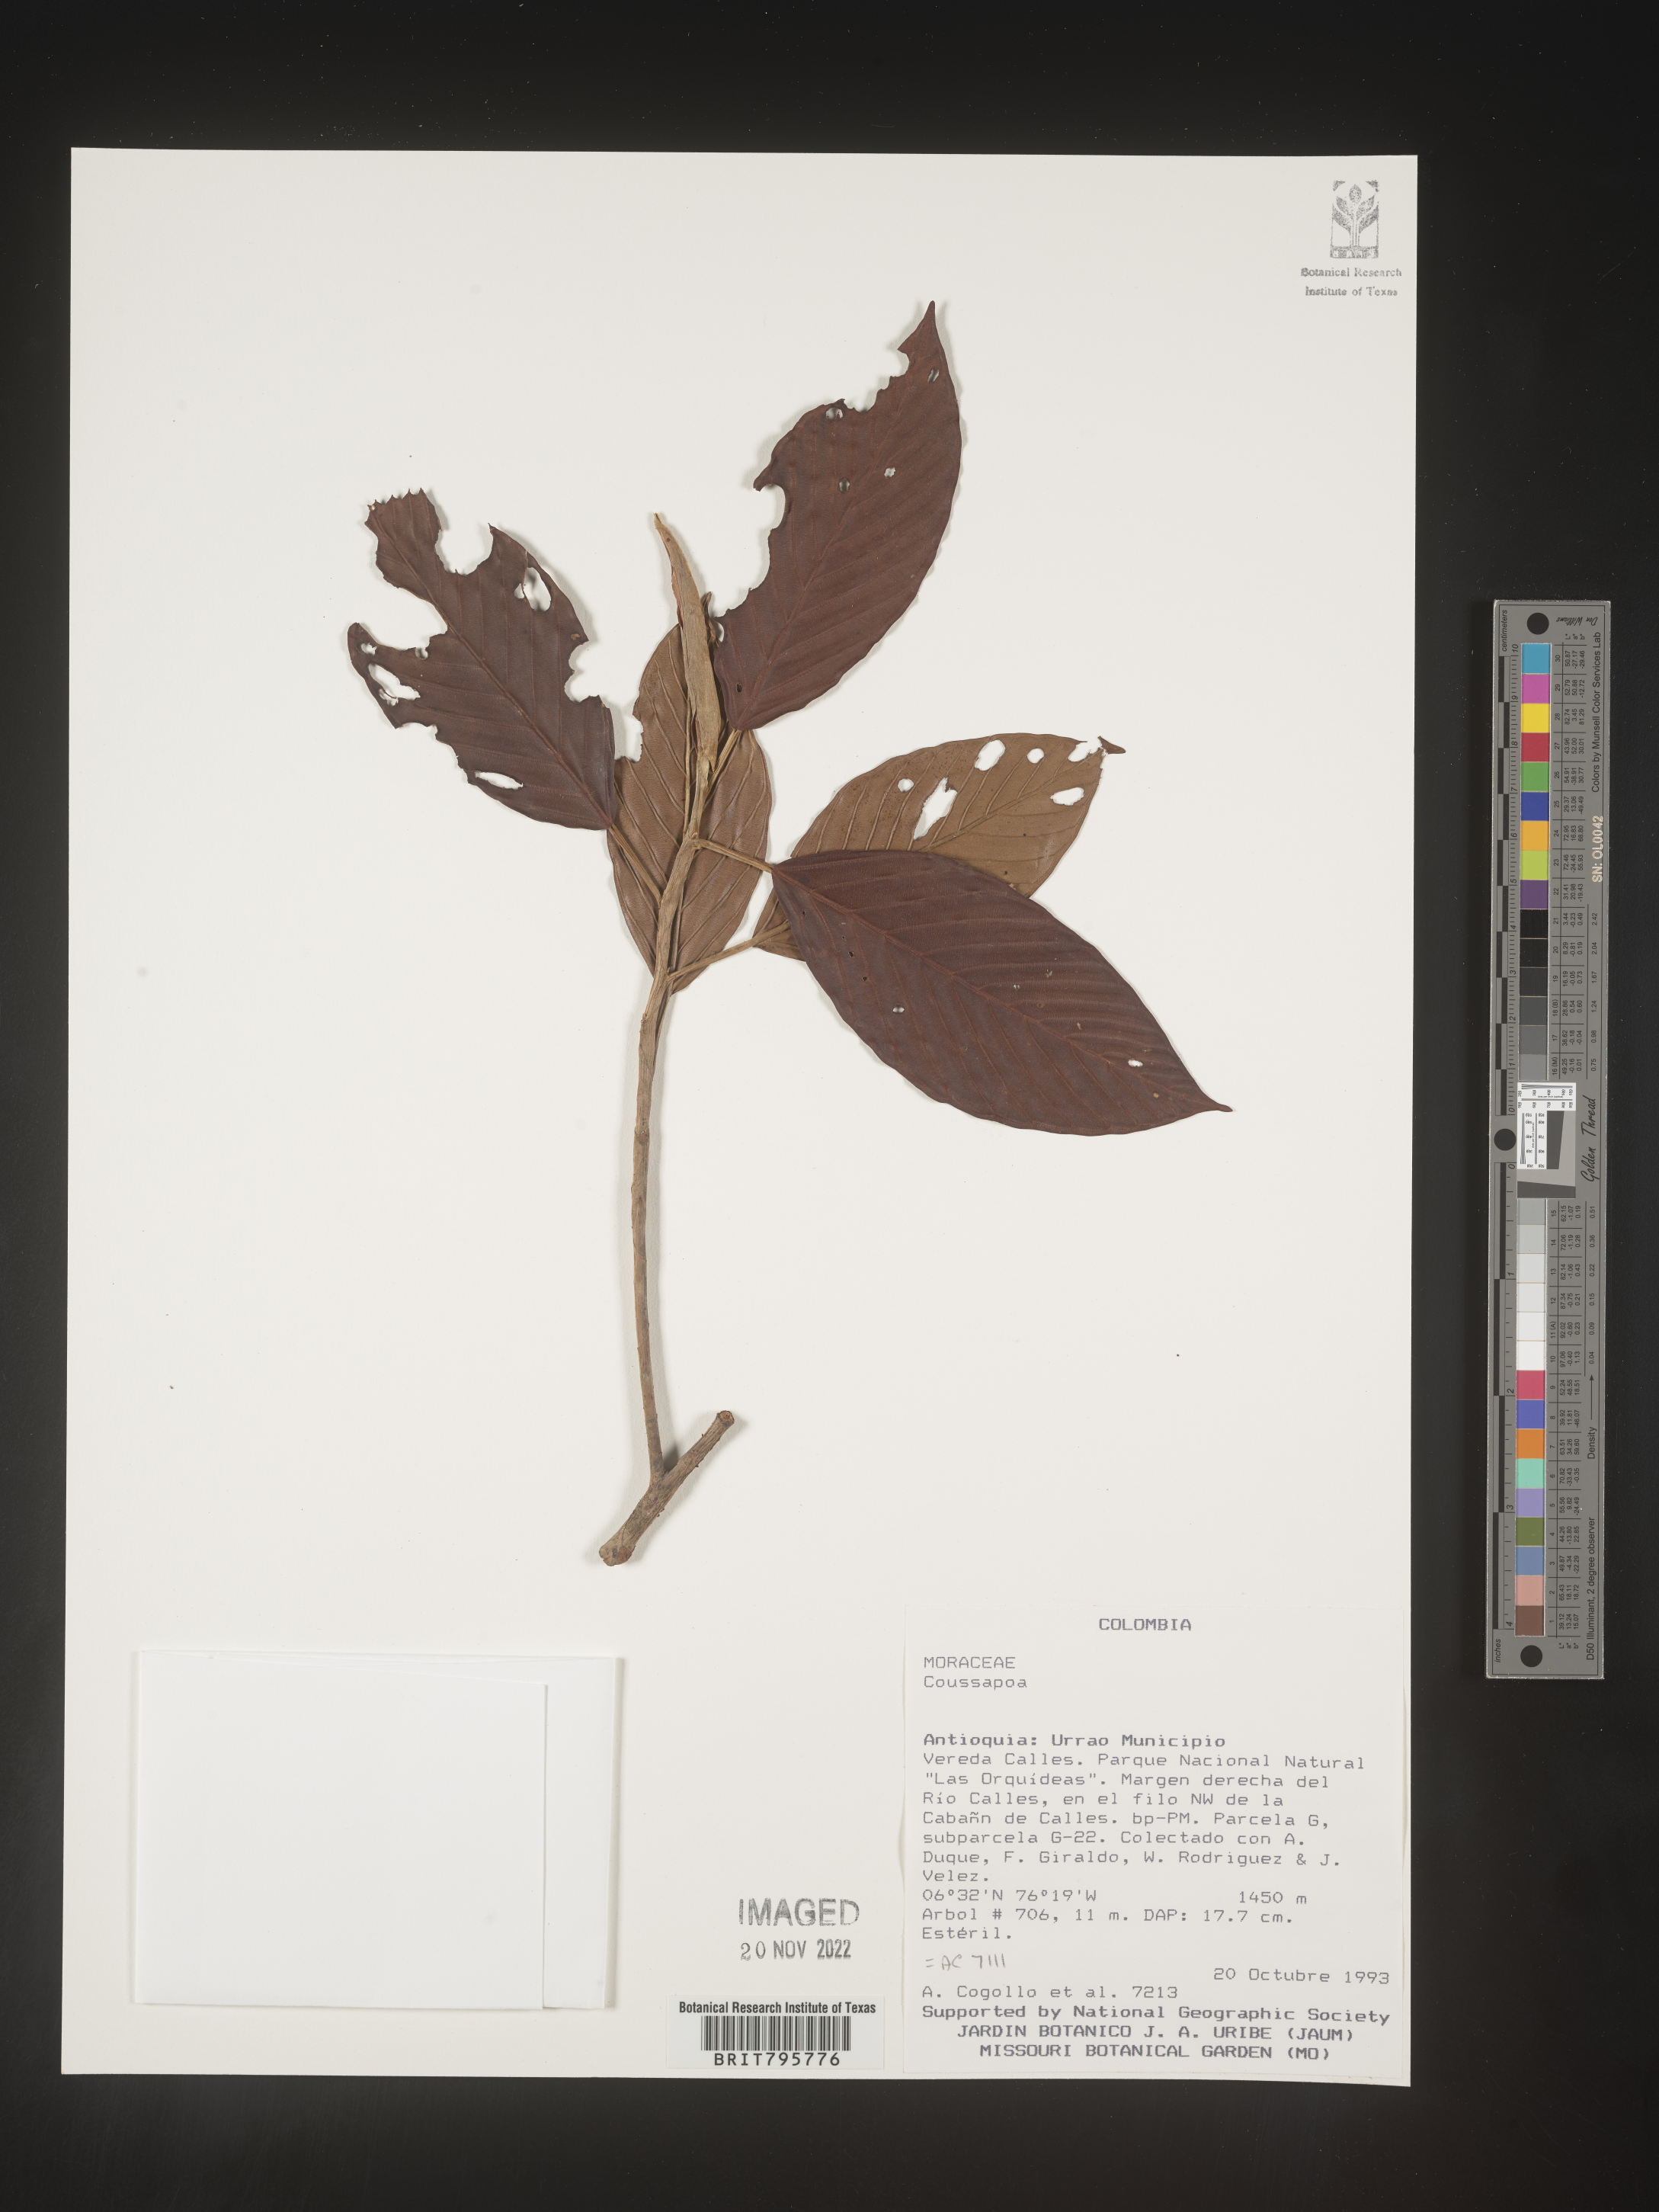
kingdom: Plantae
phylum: Tracheophyta
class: Magnoliopsida
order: Rosales
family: Urticaceae
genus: Coussapoa
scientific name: Coussapoa
